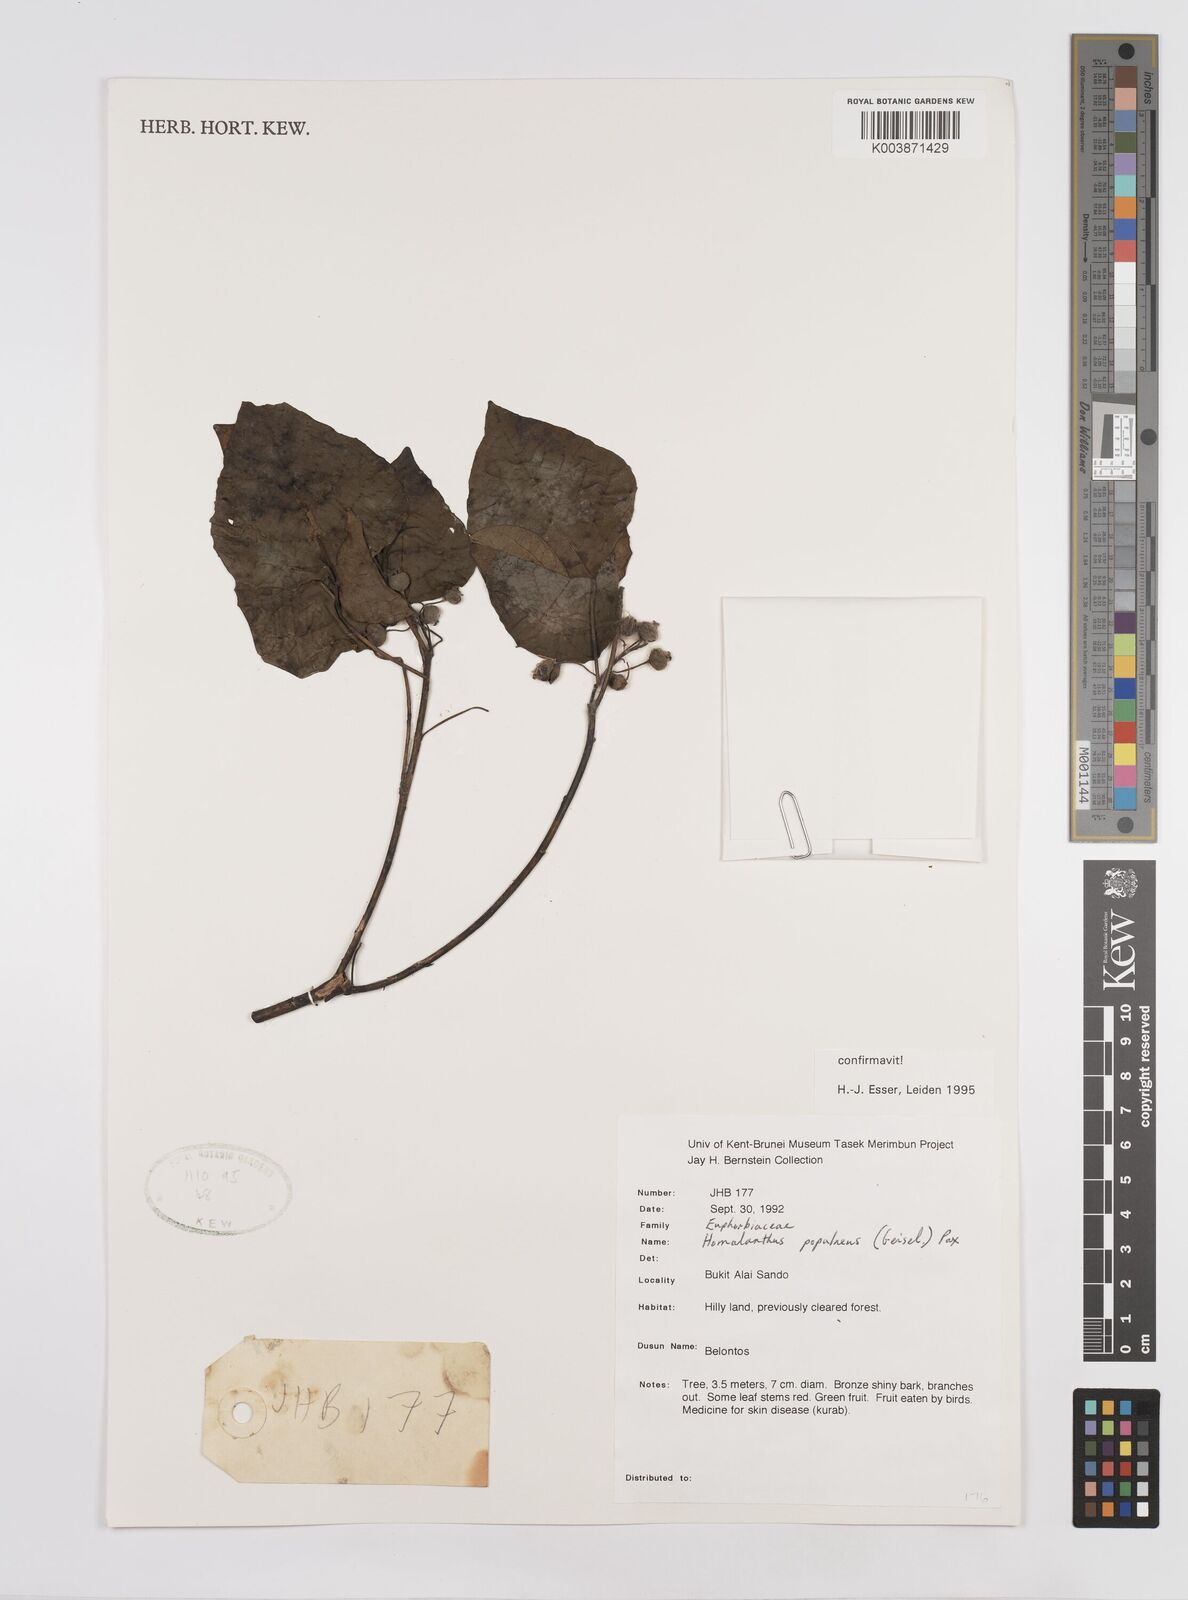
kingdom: Plantae
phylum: Tracheophyta
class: Magnoliopsida
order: Malpighiales
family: Euphorbiaceae
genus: Homalanthus
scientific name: Homalanthus populneus
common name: Spurge
